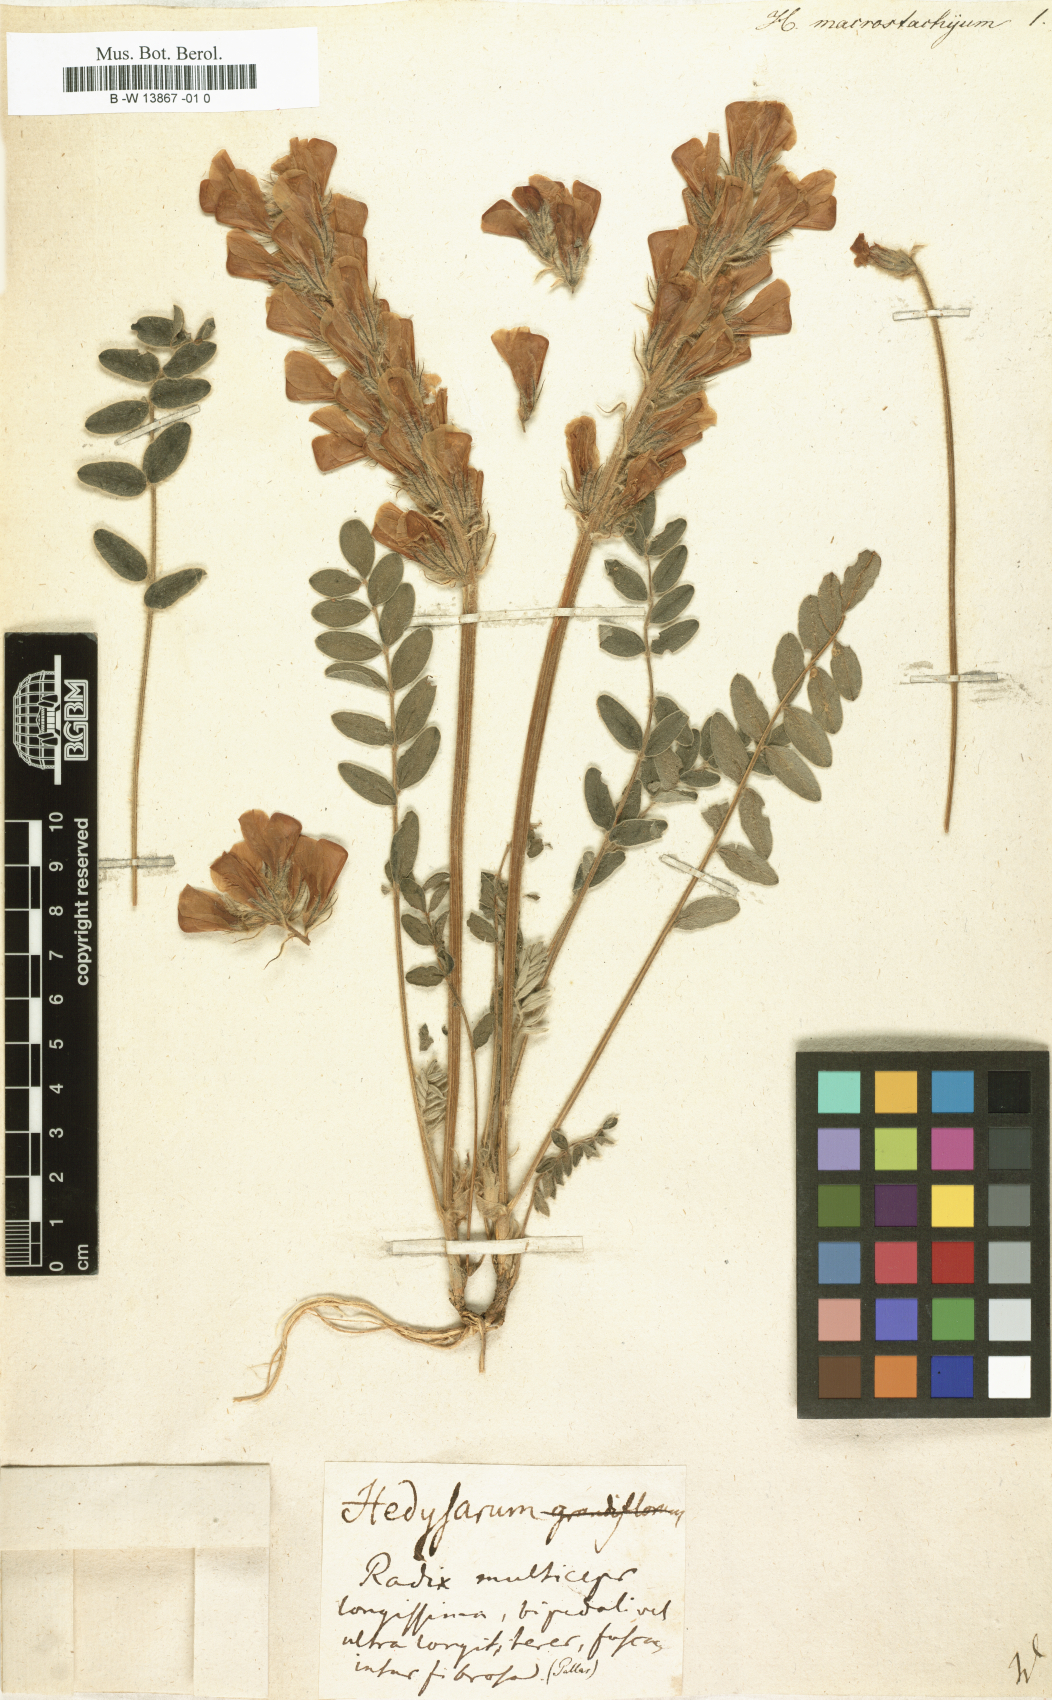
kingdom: Plantae
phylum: Tracheophyta
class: Magnoliopsida
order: Fabales
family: Fabaceae
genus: Hedysarum
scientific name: Hedysarum macrostachyum
